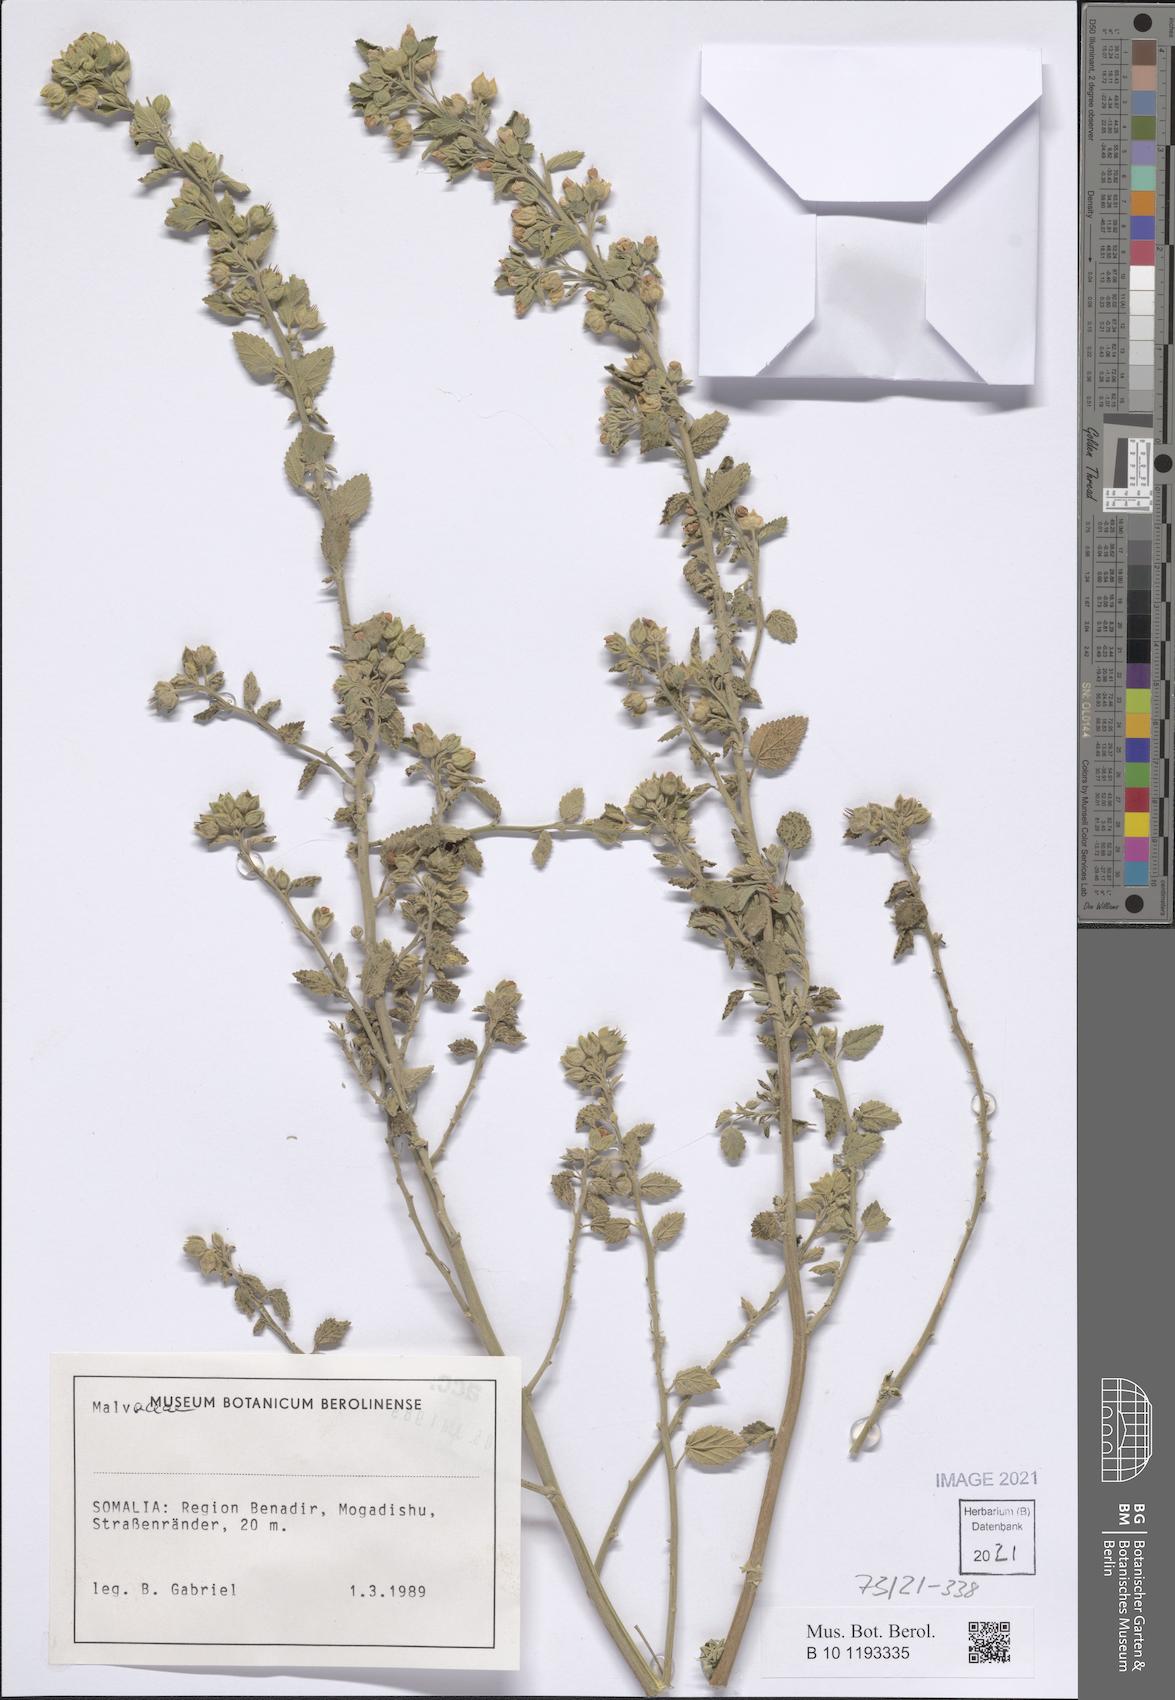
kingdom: Plantae
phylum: Tracheophyta
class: Magnoliopsida
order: Malvales
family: Malvaceae
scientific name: Malvaceae
